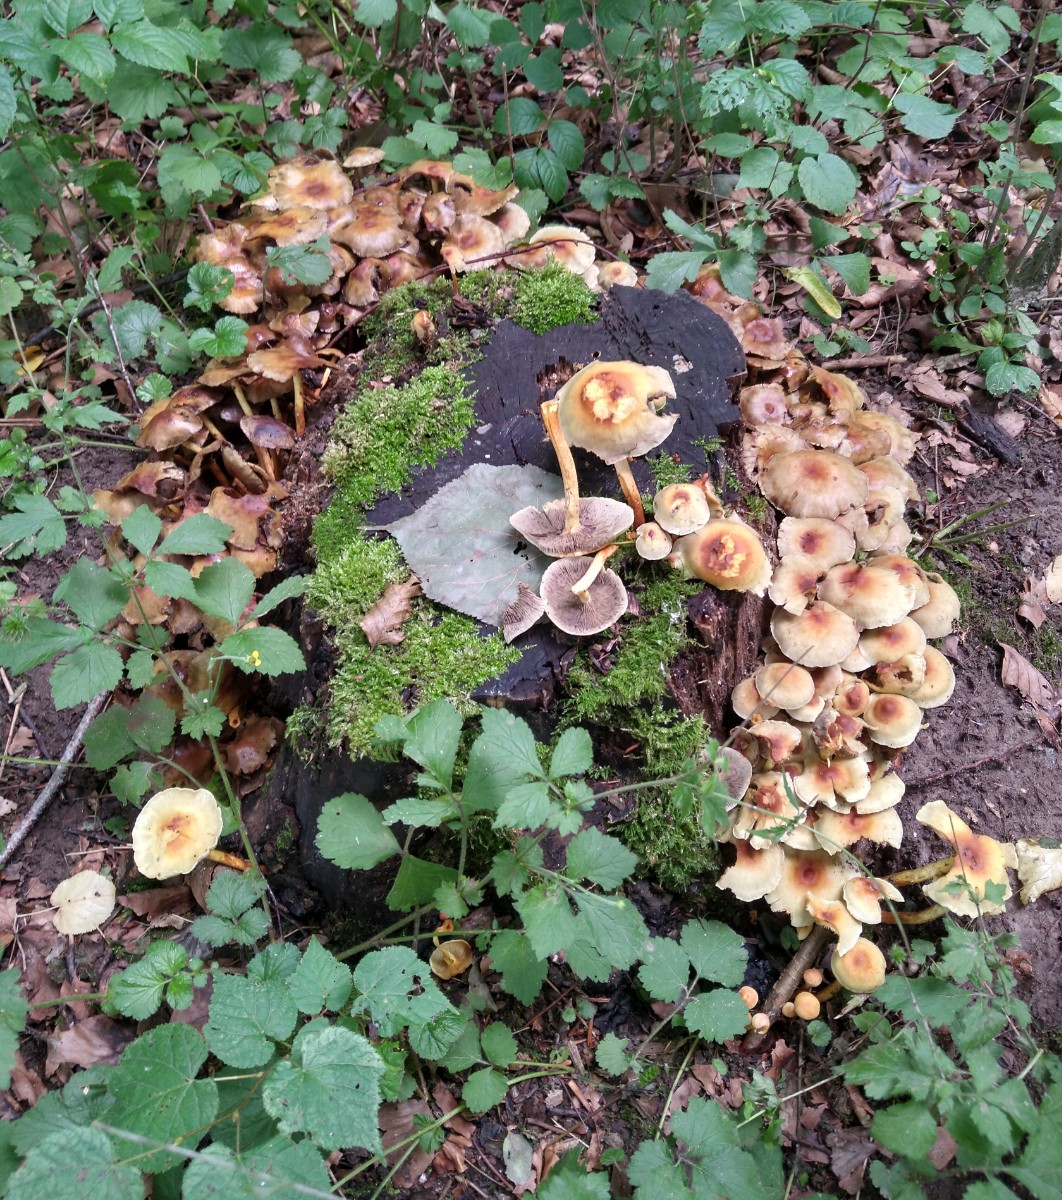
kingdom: Fungi
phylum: Basidiomycota
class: Agaricomycetes
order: Agaricales
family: Strophariaceae
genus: Hypholoma
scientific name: Hypholoma
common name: svovlhat
